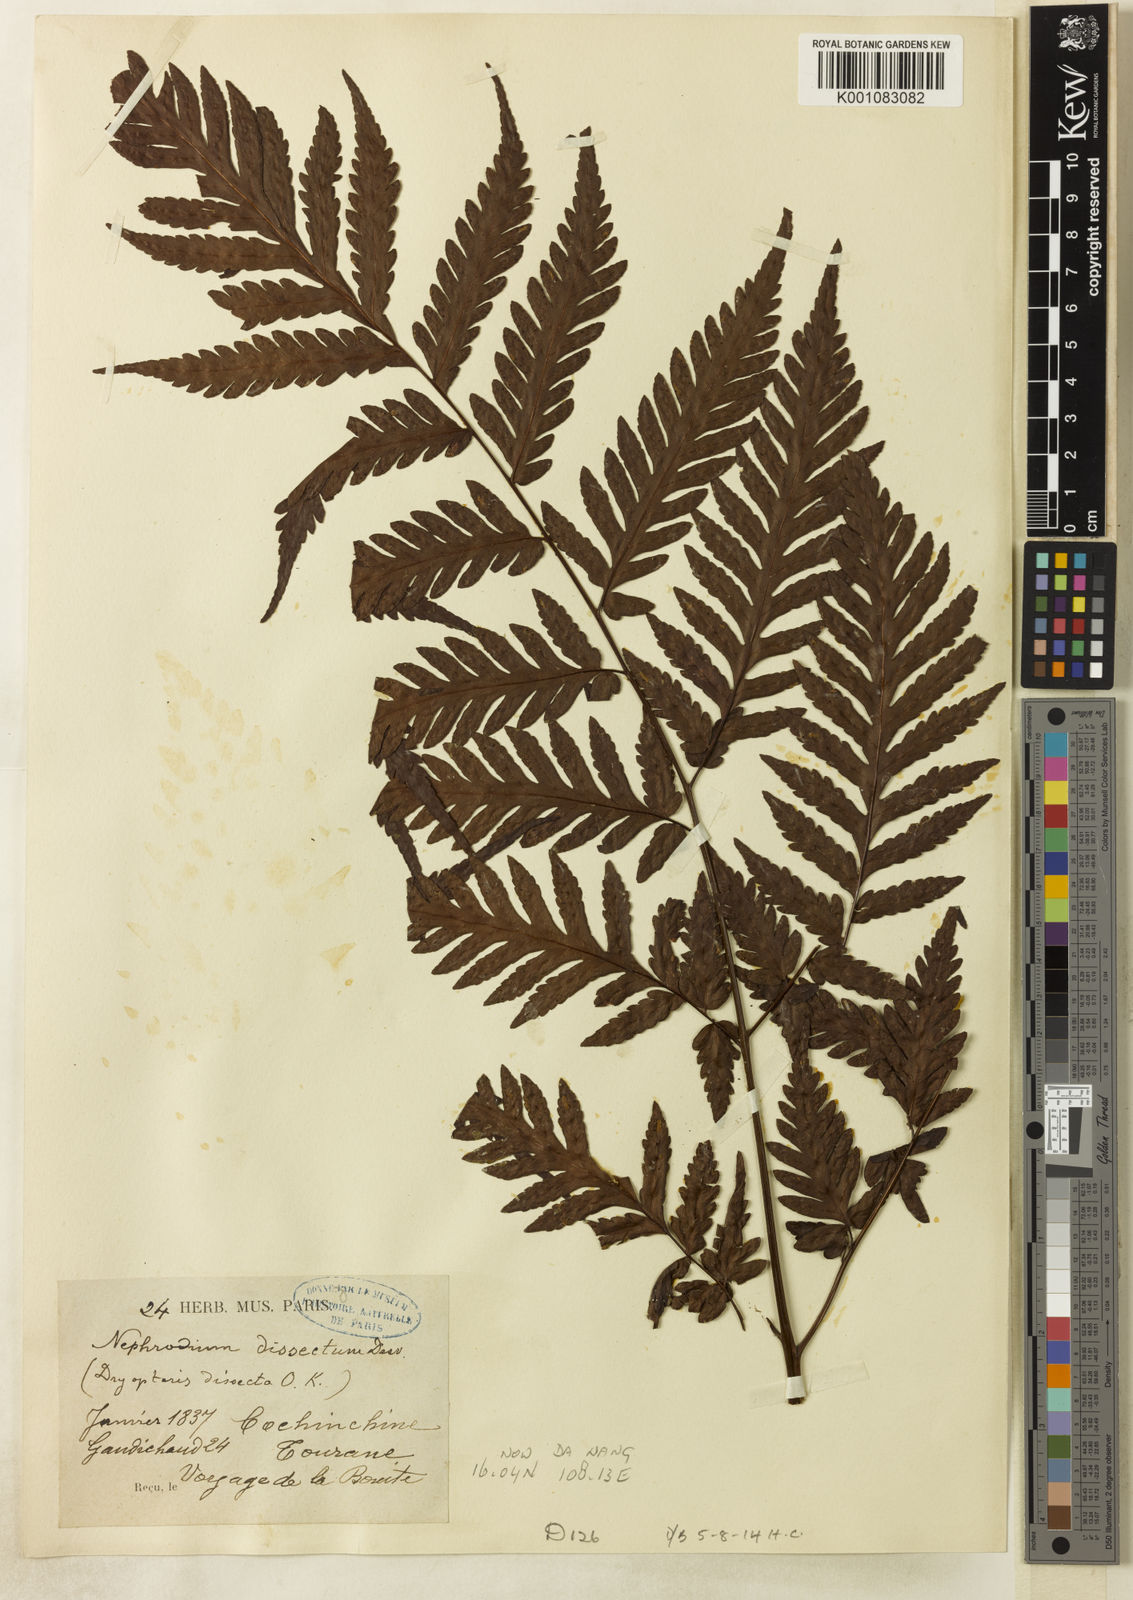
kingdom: Plantae
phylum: Tracheophyta
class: Polypodiopsida
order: Polypodiales
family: Tectariaceae
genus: Tectaria
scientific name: Tectaria
